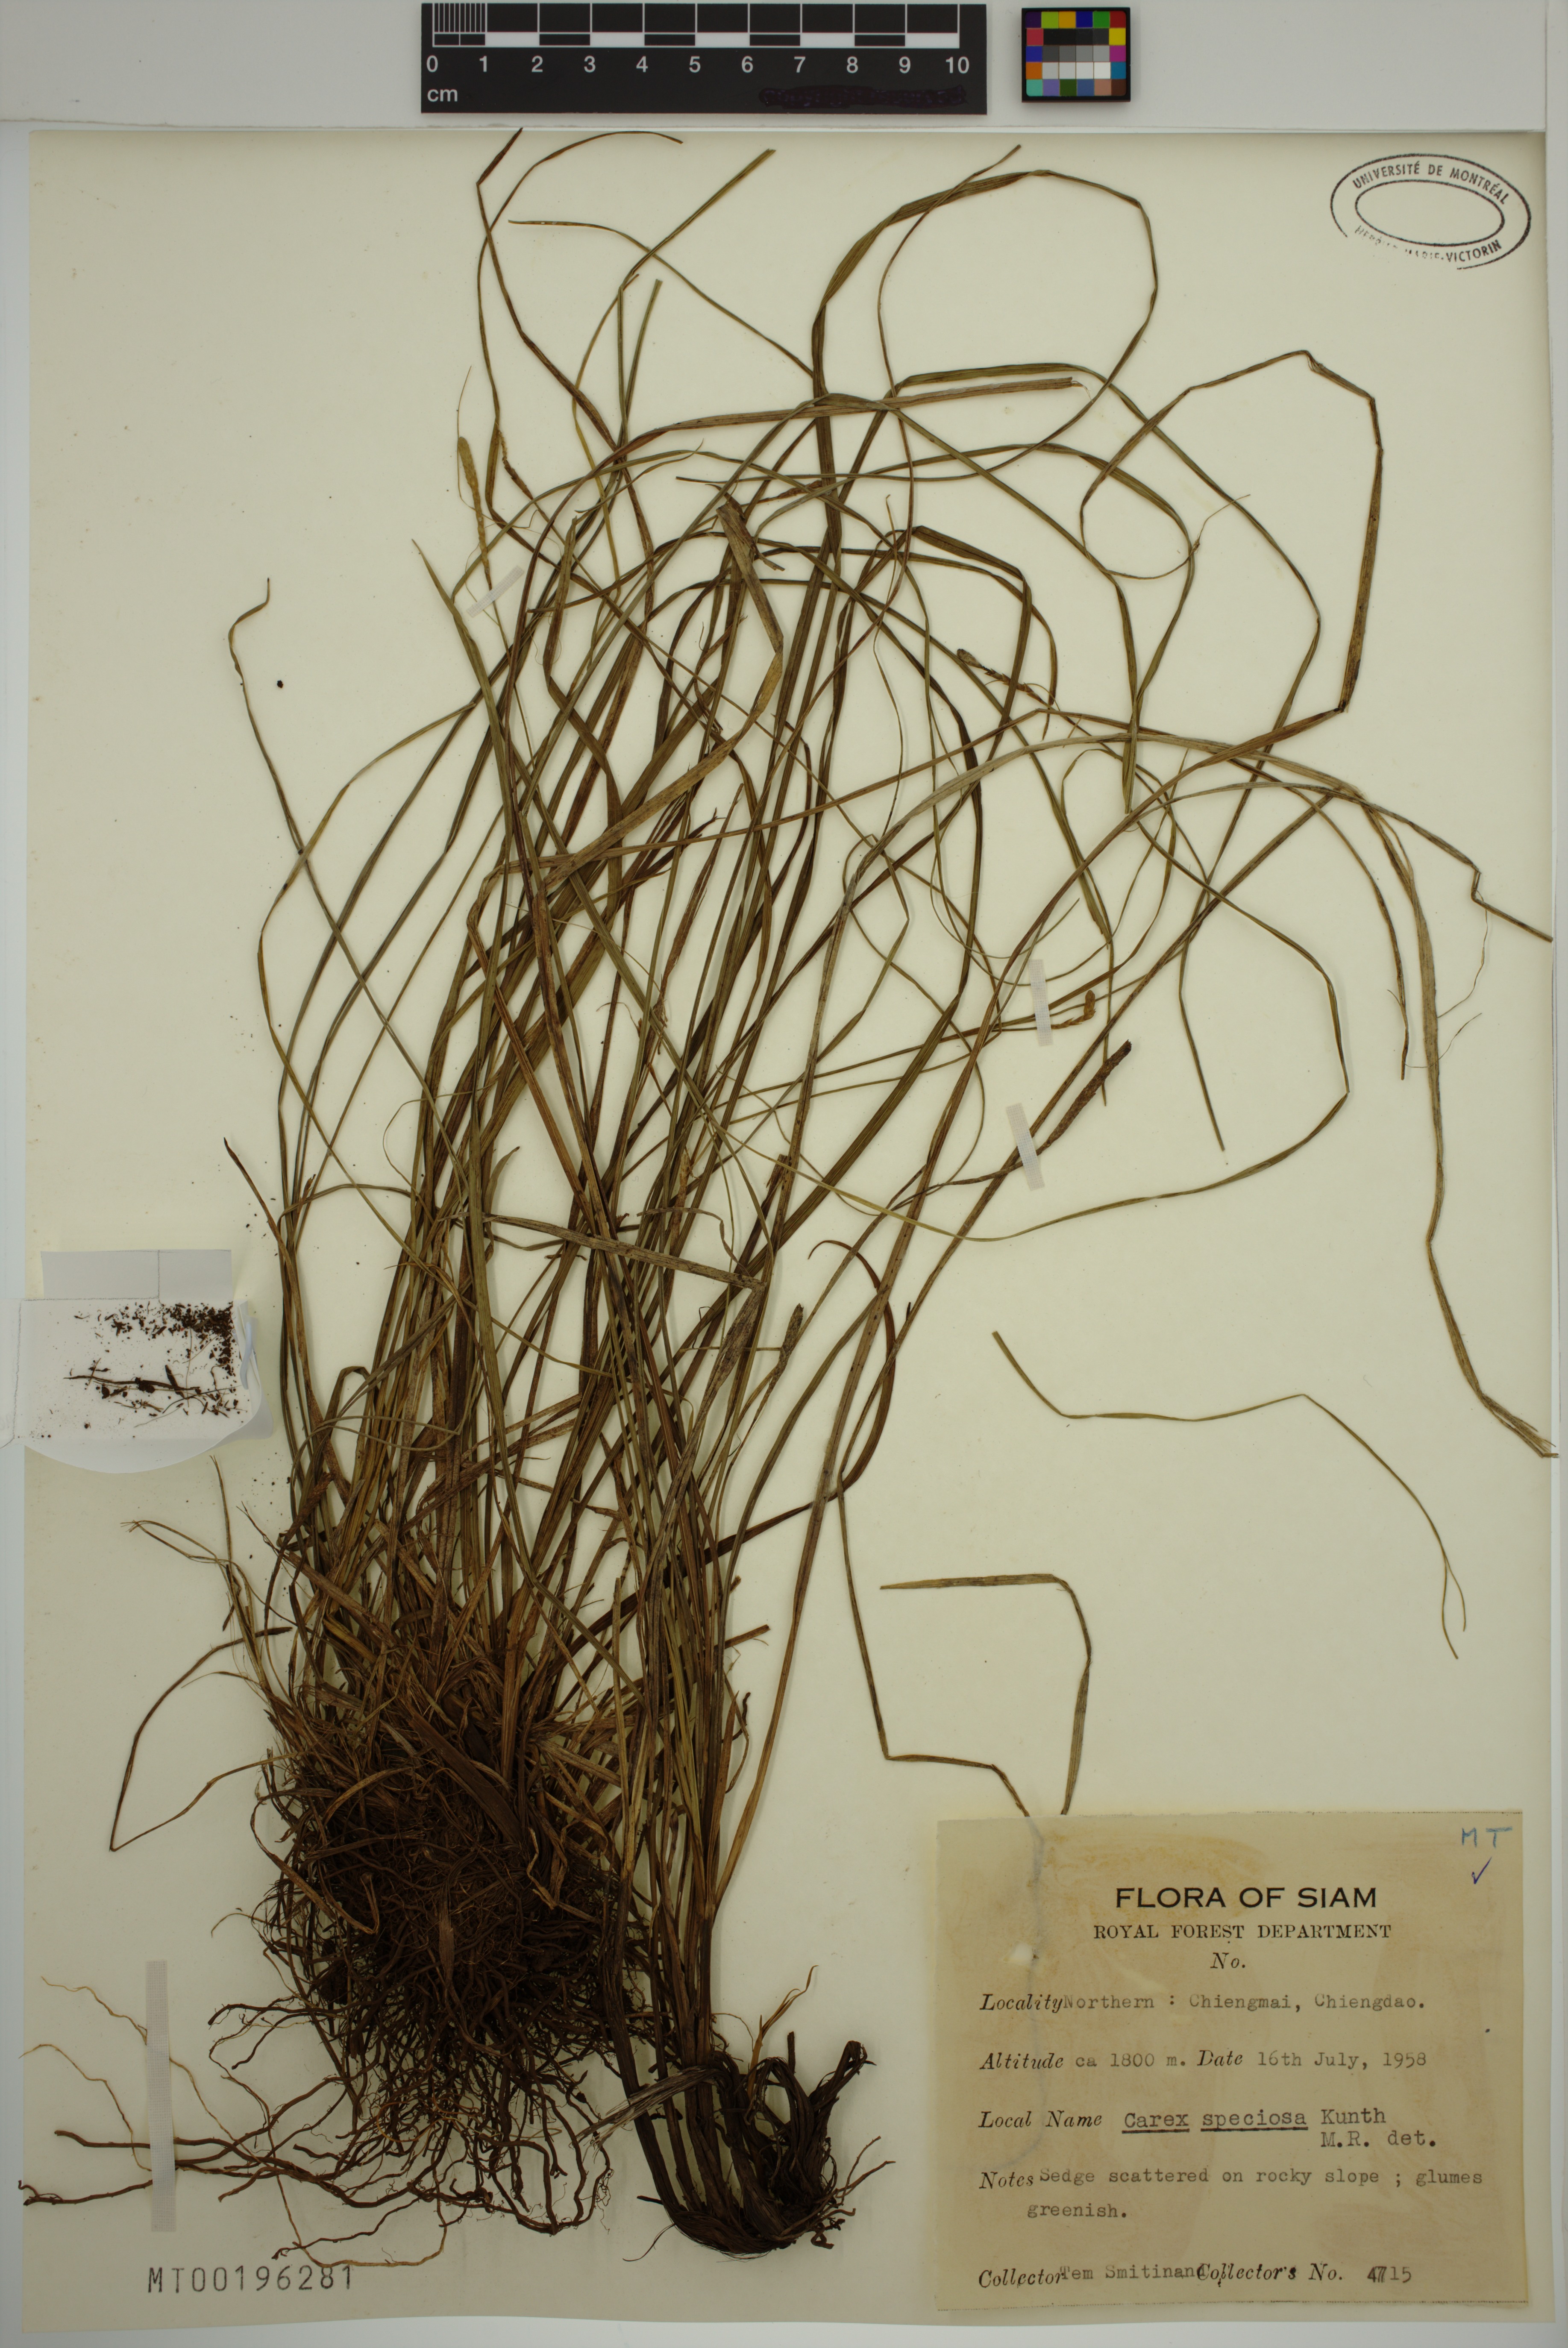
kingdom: Plantae
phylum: Tracheophyta
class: Liliopsida
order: Poales
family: Cyperaceae
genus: Carex
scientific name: Carex speciosa
